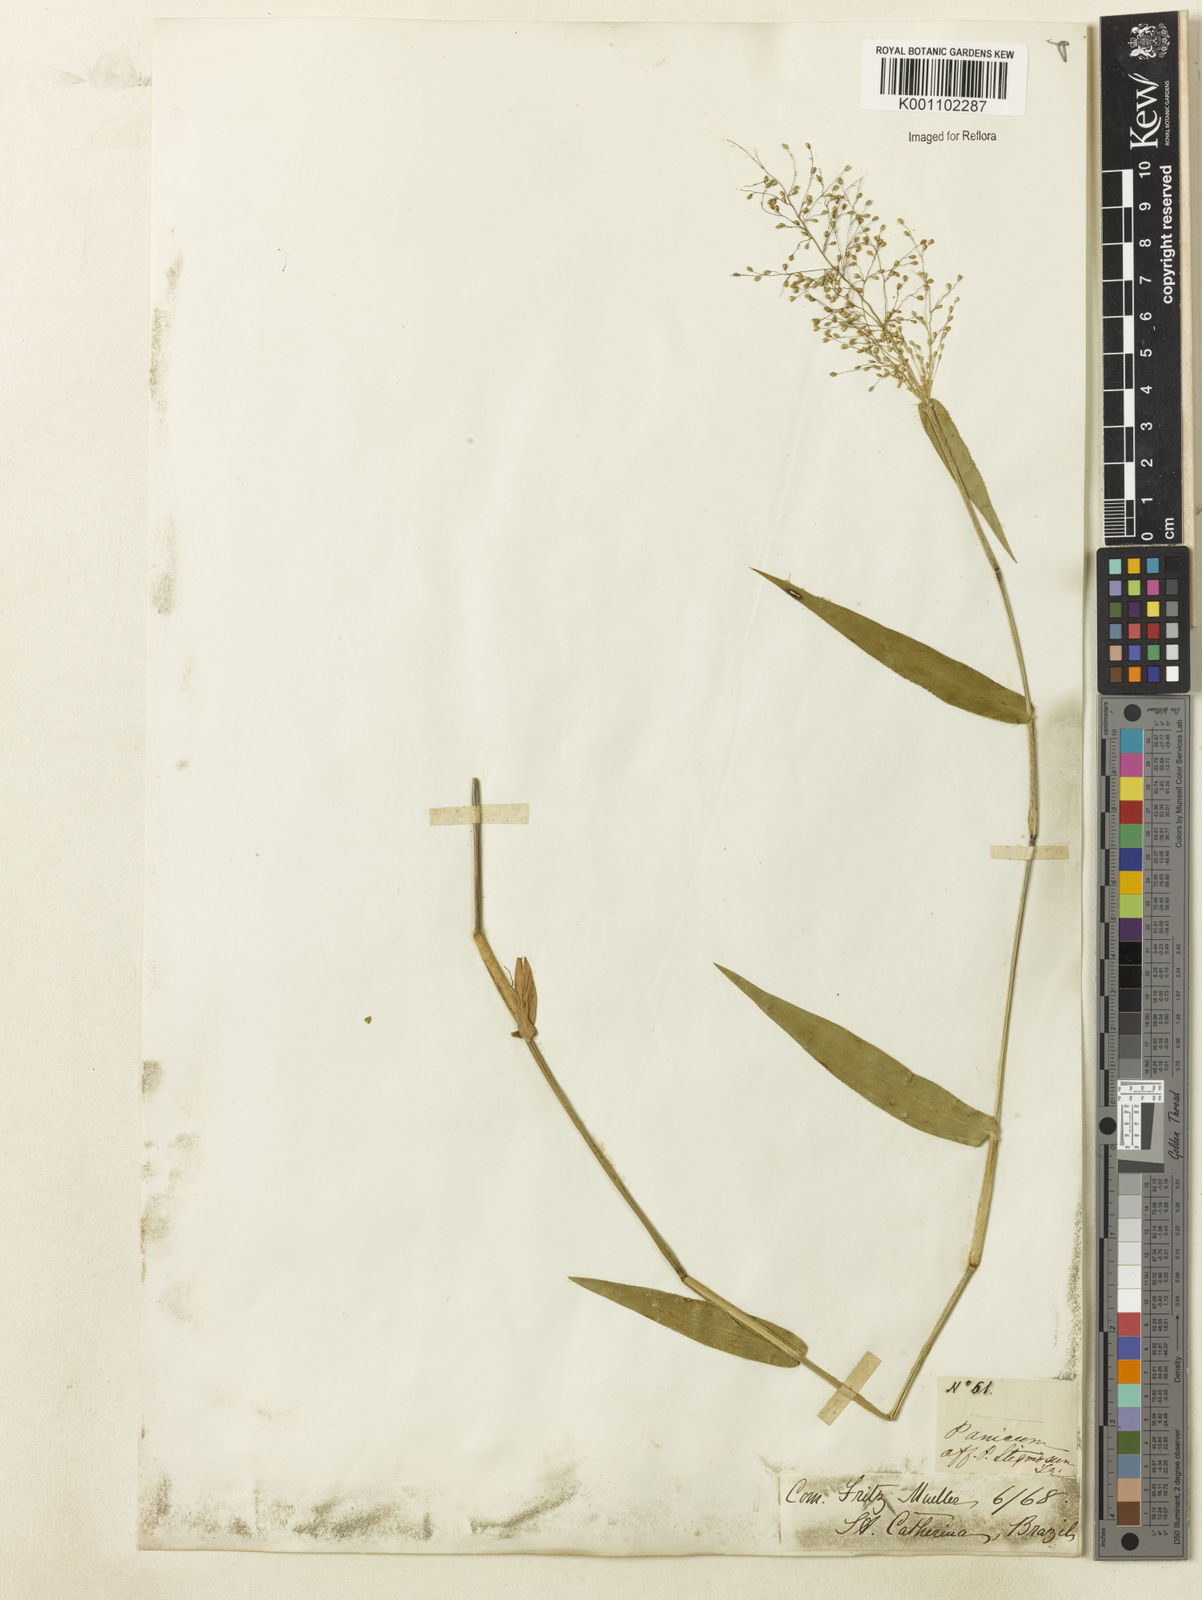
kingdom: Plantae
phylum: Tracheophyta
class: Liliopsida
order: Poales
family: Poaceae
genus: Dichanthelium
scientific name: Dichanthelium stigmosum
